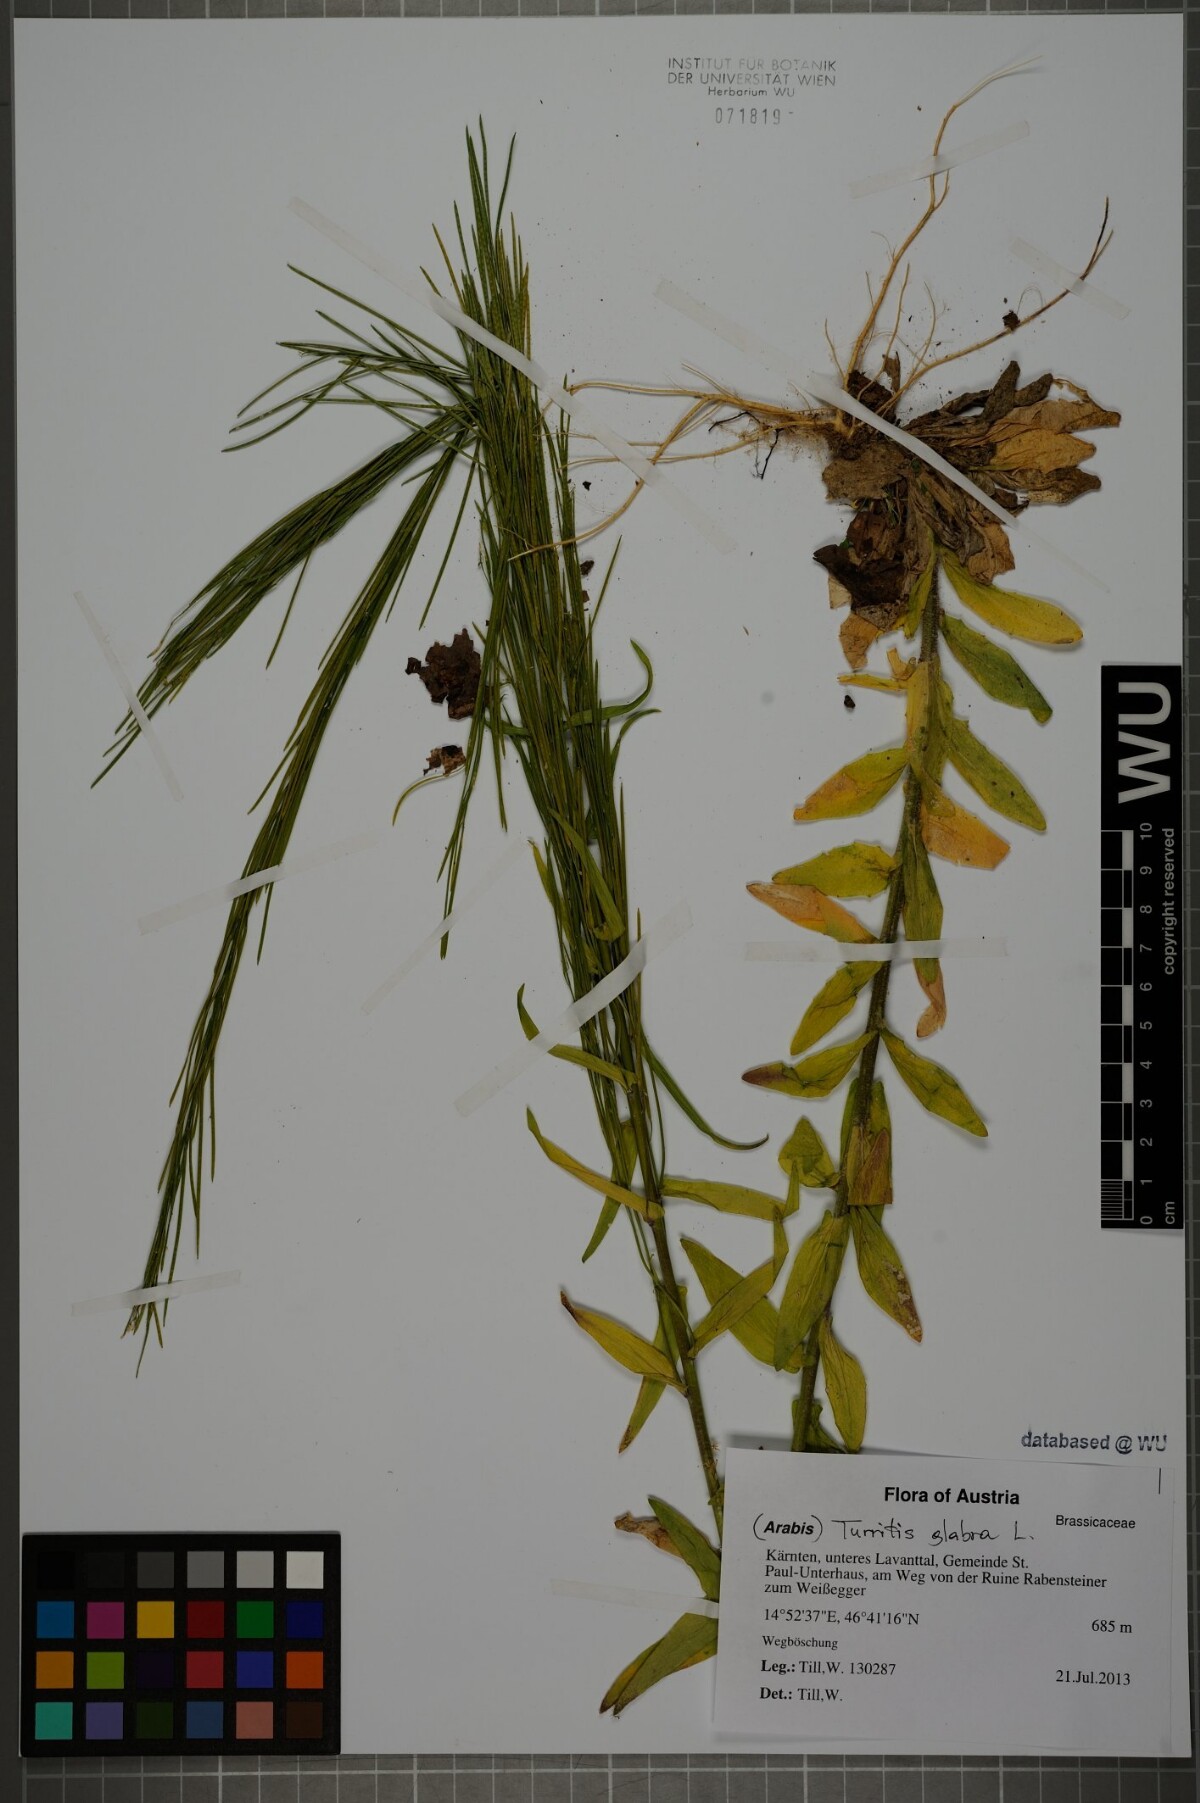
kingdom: Plantae
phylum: Tracheophyta
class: Magnoliopsida
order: Brassicales
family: Brassicaceae
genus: Turritis
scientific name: Turritis glabra
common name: Tower rockcress
